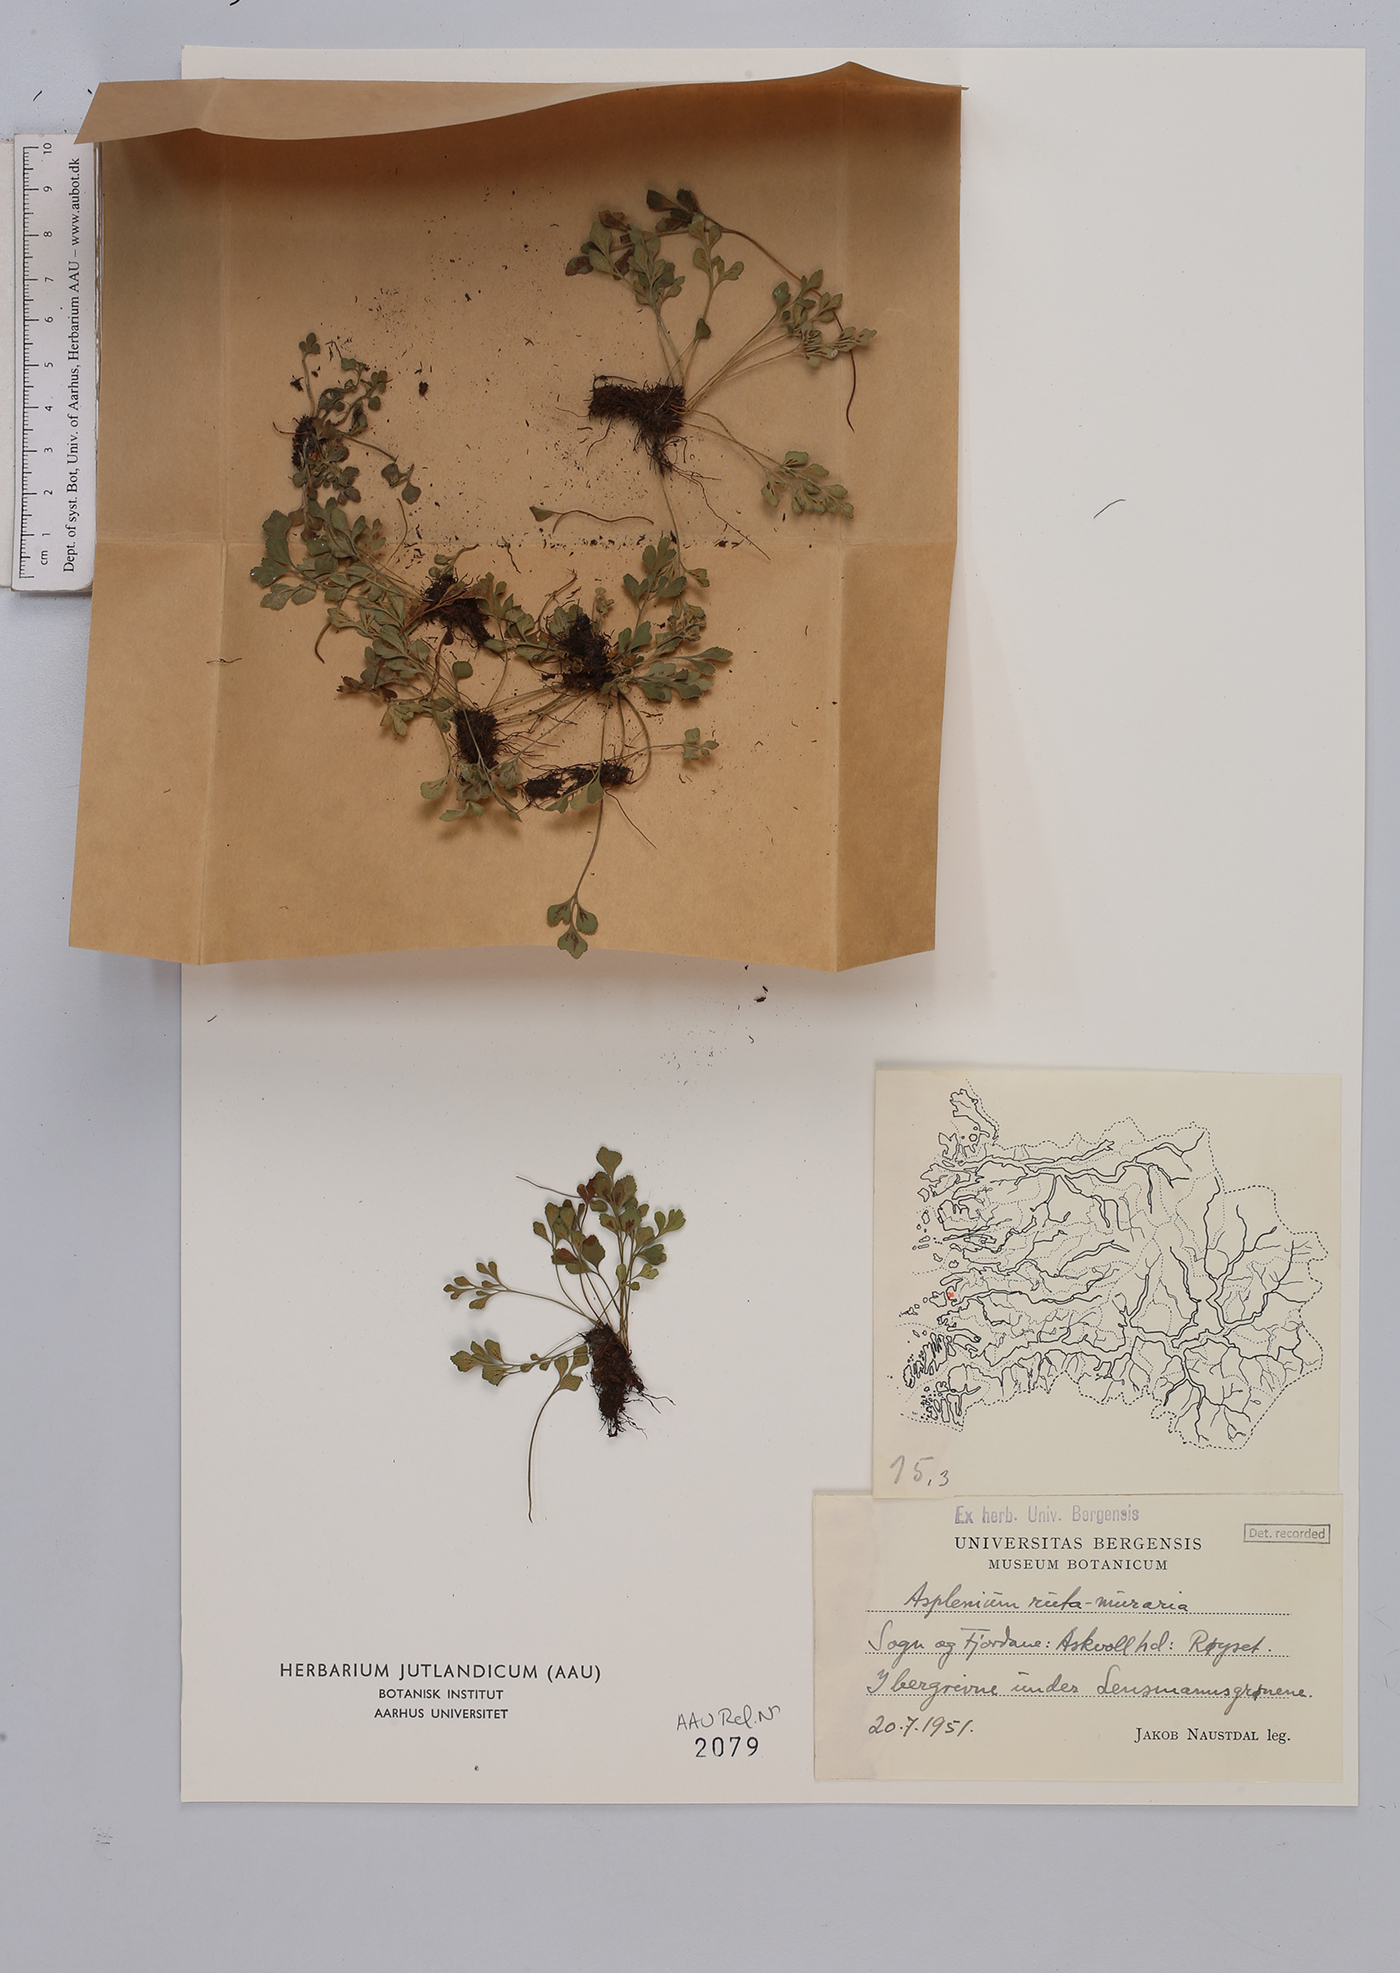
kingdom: Plantae
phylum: Tracheophyta
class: Polypodiopsida
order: Polypodiales
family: Aspleniaceae
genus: Asplenium
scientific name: Asplenium ruta-muraria
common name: Wall-rue
